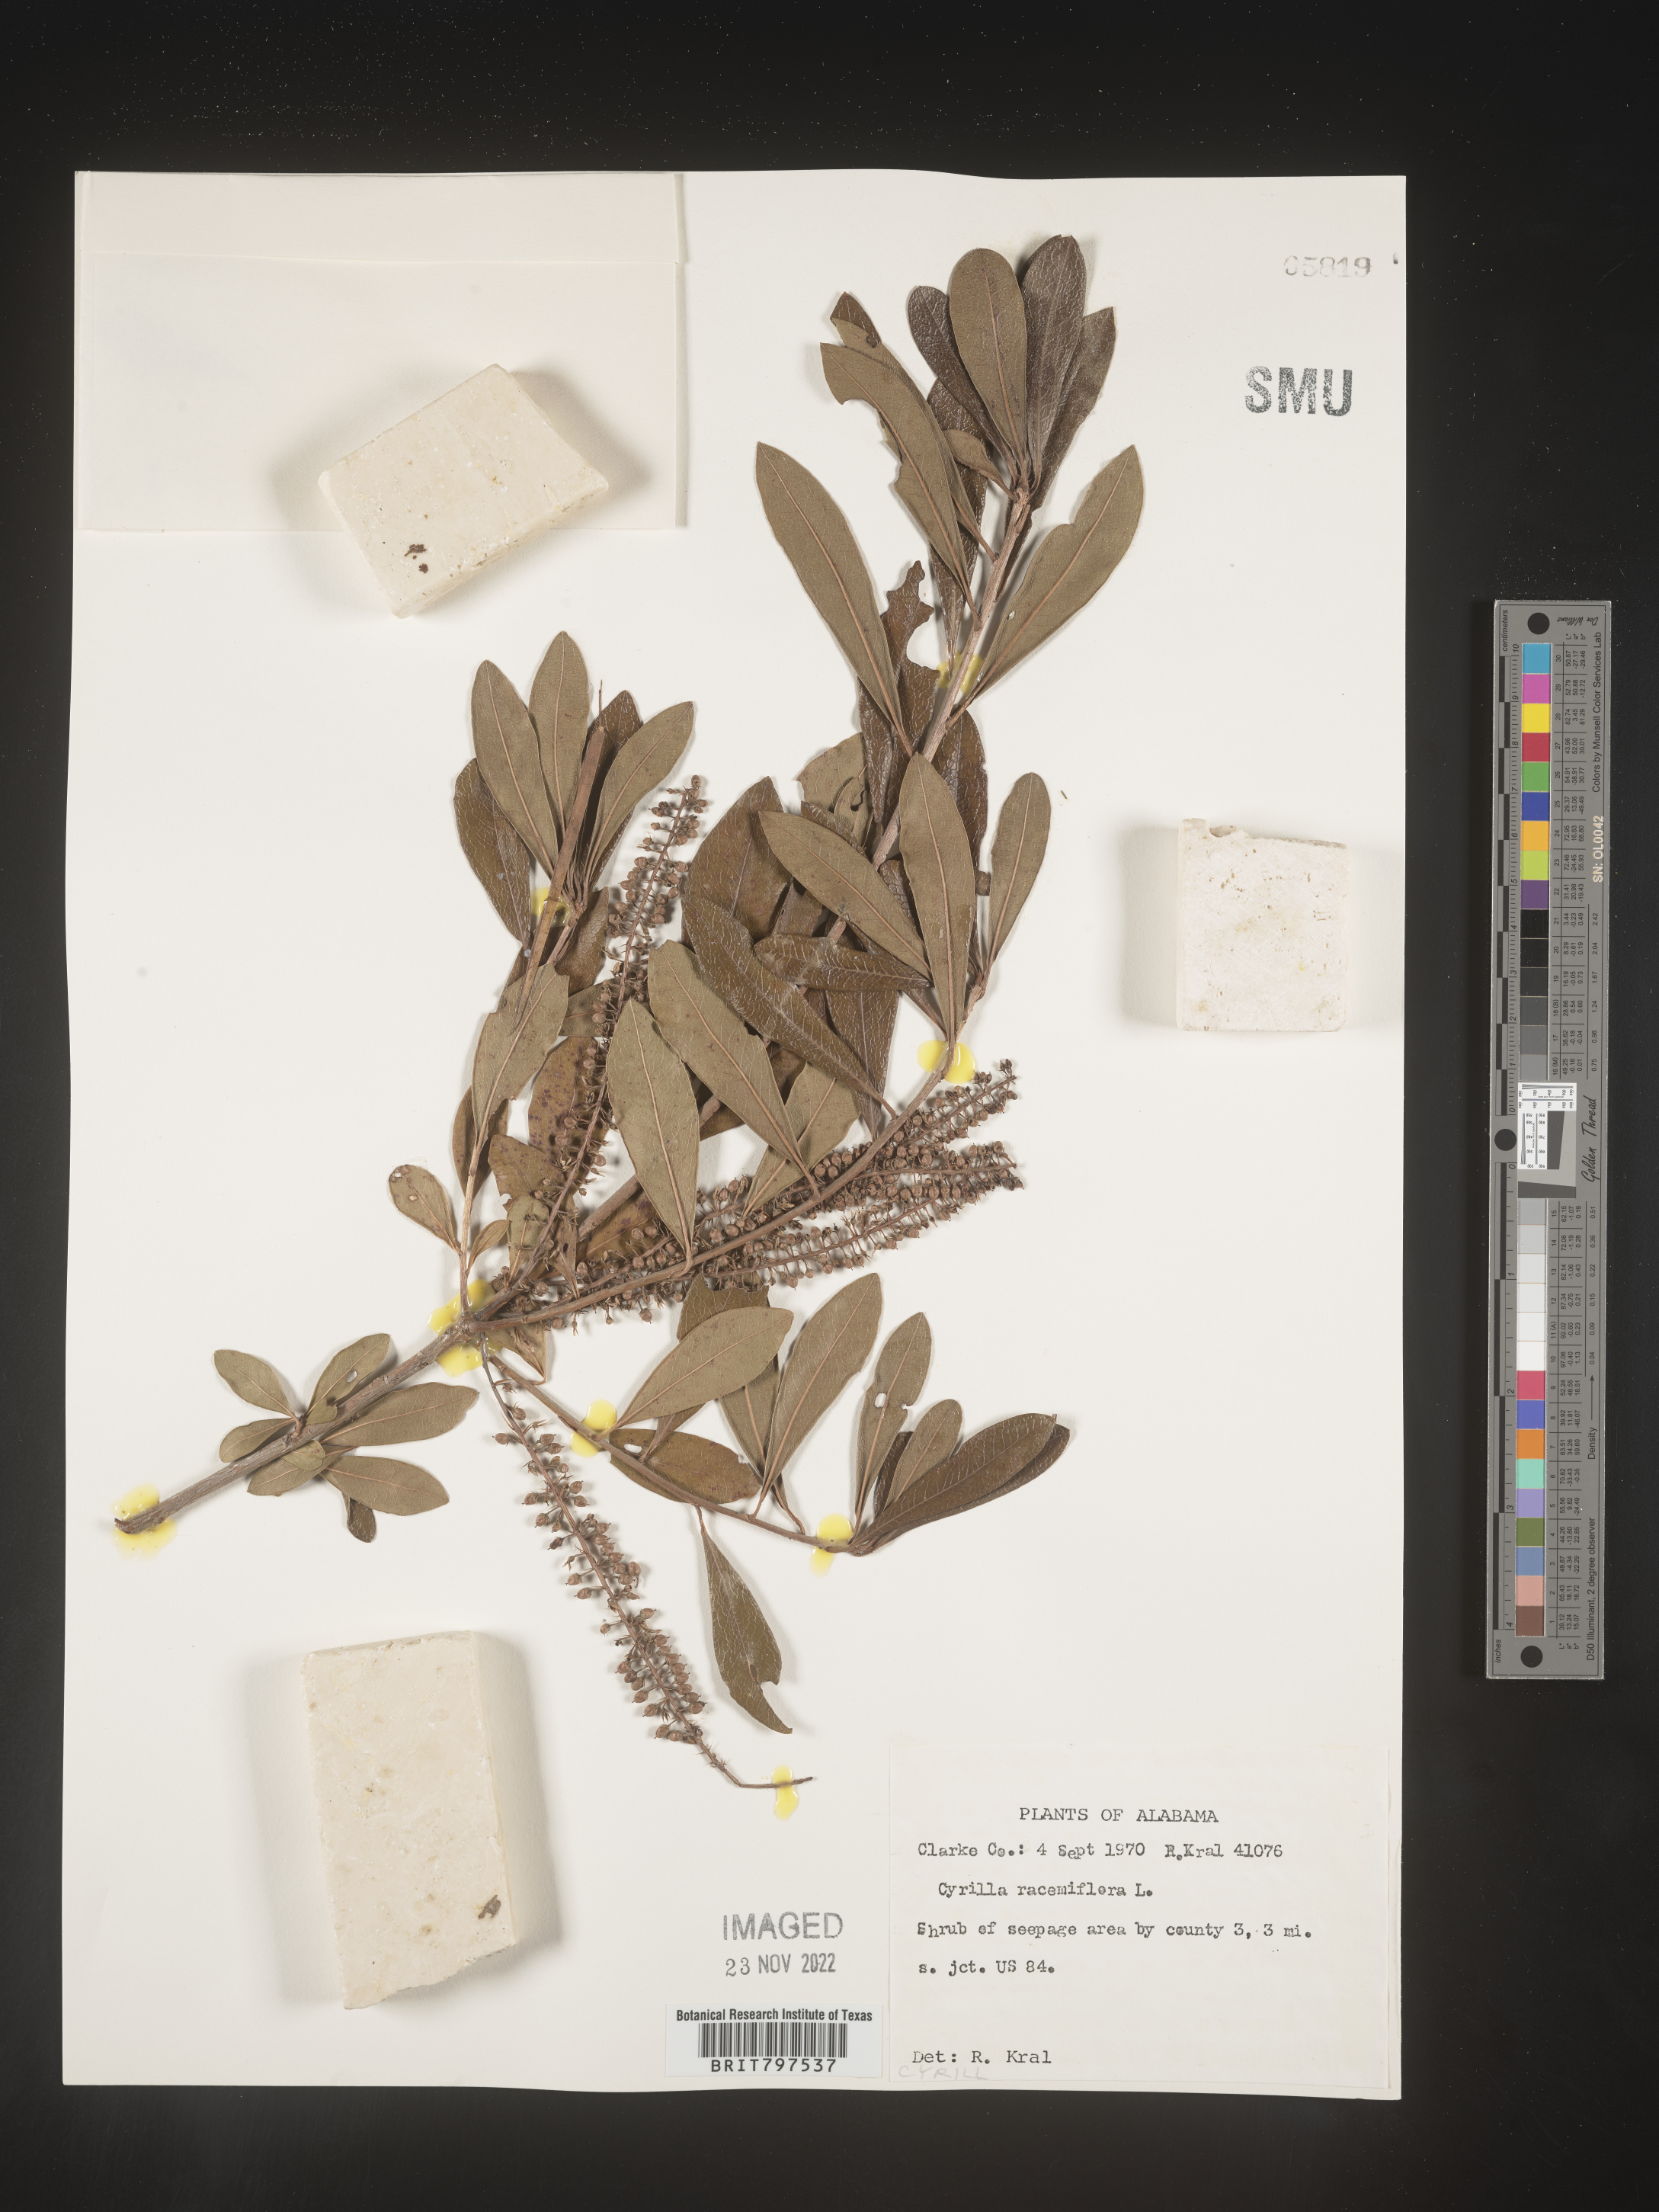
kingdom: Plantae
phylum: Tracheophyta
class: Magnoliopsida
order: Ericales
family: Cyrillaceae
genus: Cyrilla
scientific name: Cyrilla racemiflora
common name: Black titi
